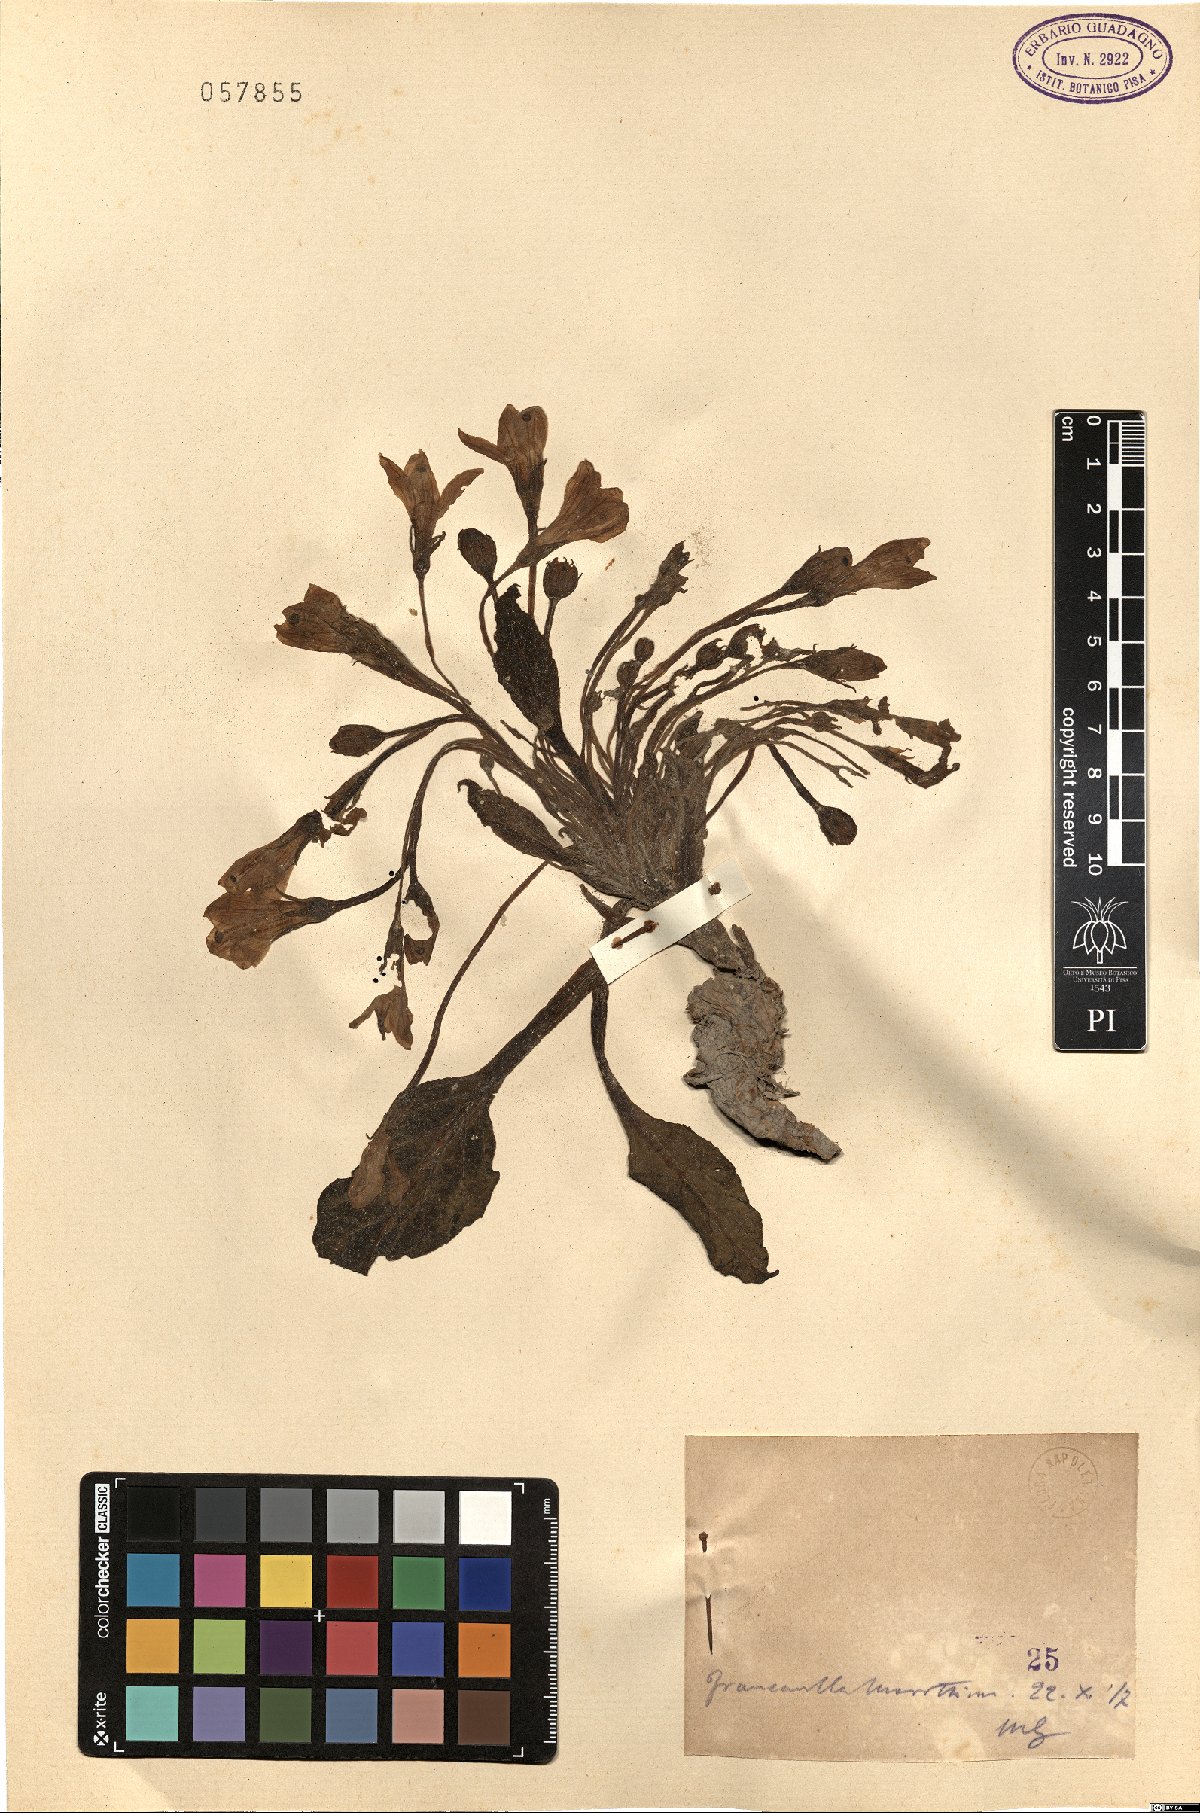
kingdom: Plantae
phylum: Tracheophyta
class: Magnoliopsida
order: Solanales
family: Solanaceae
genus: Mandragora
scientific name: Mandragora
